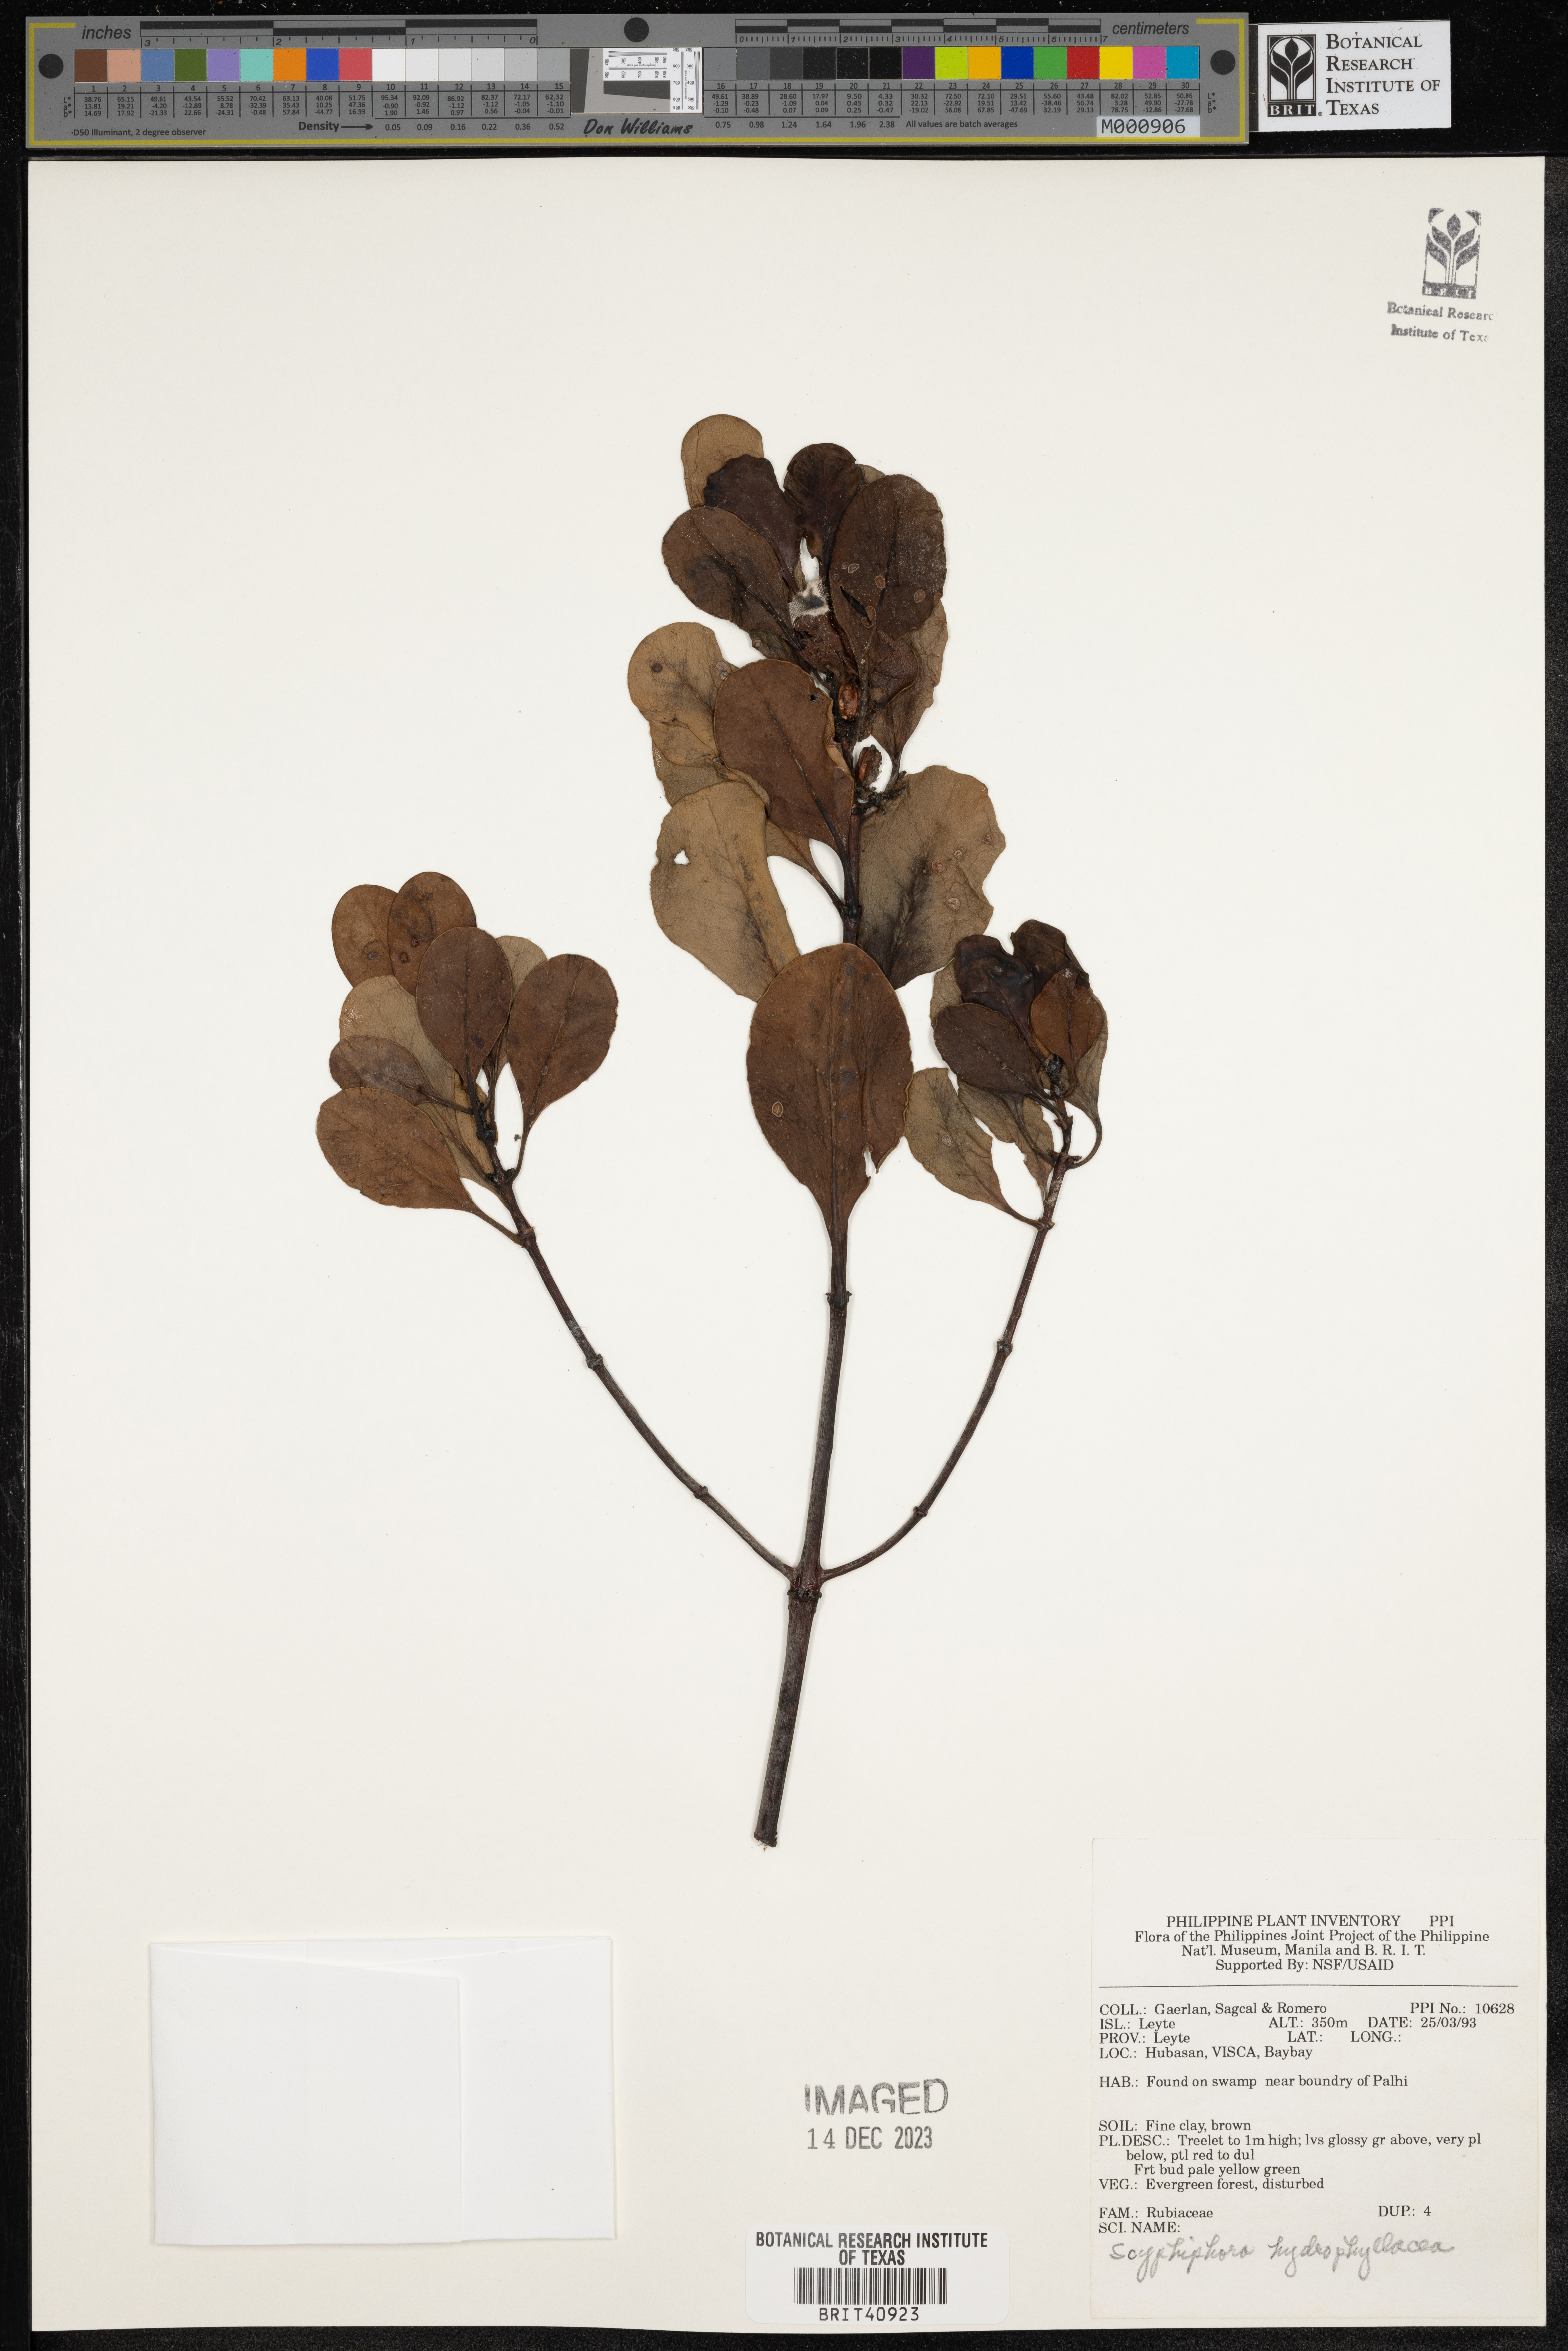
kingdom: Plantae
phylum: Tracheophyta
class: Magnoliopsida
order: Gentianales
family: Rubiaceae
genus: Scyphiphora
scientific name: Scyphiphora hydrophylacea
